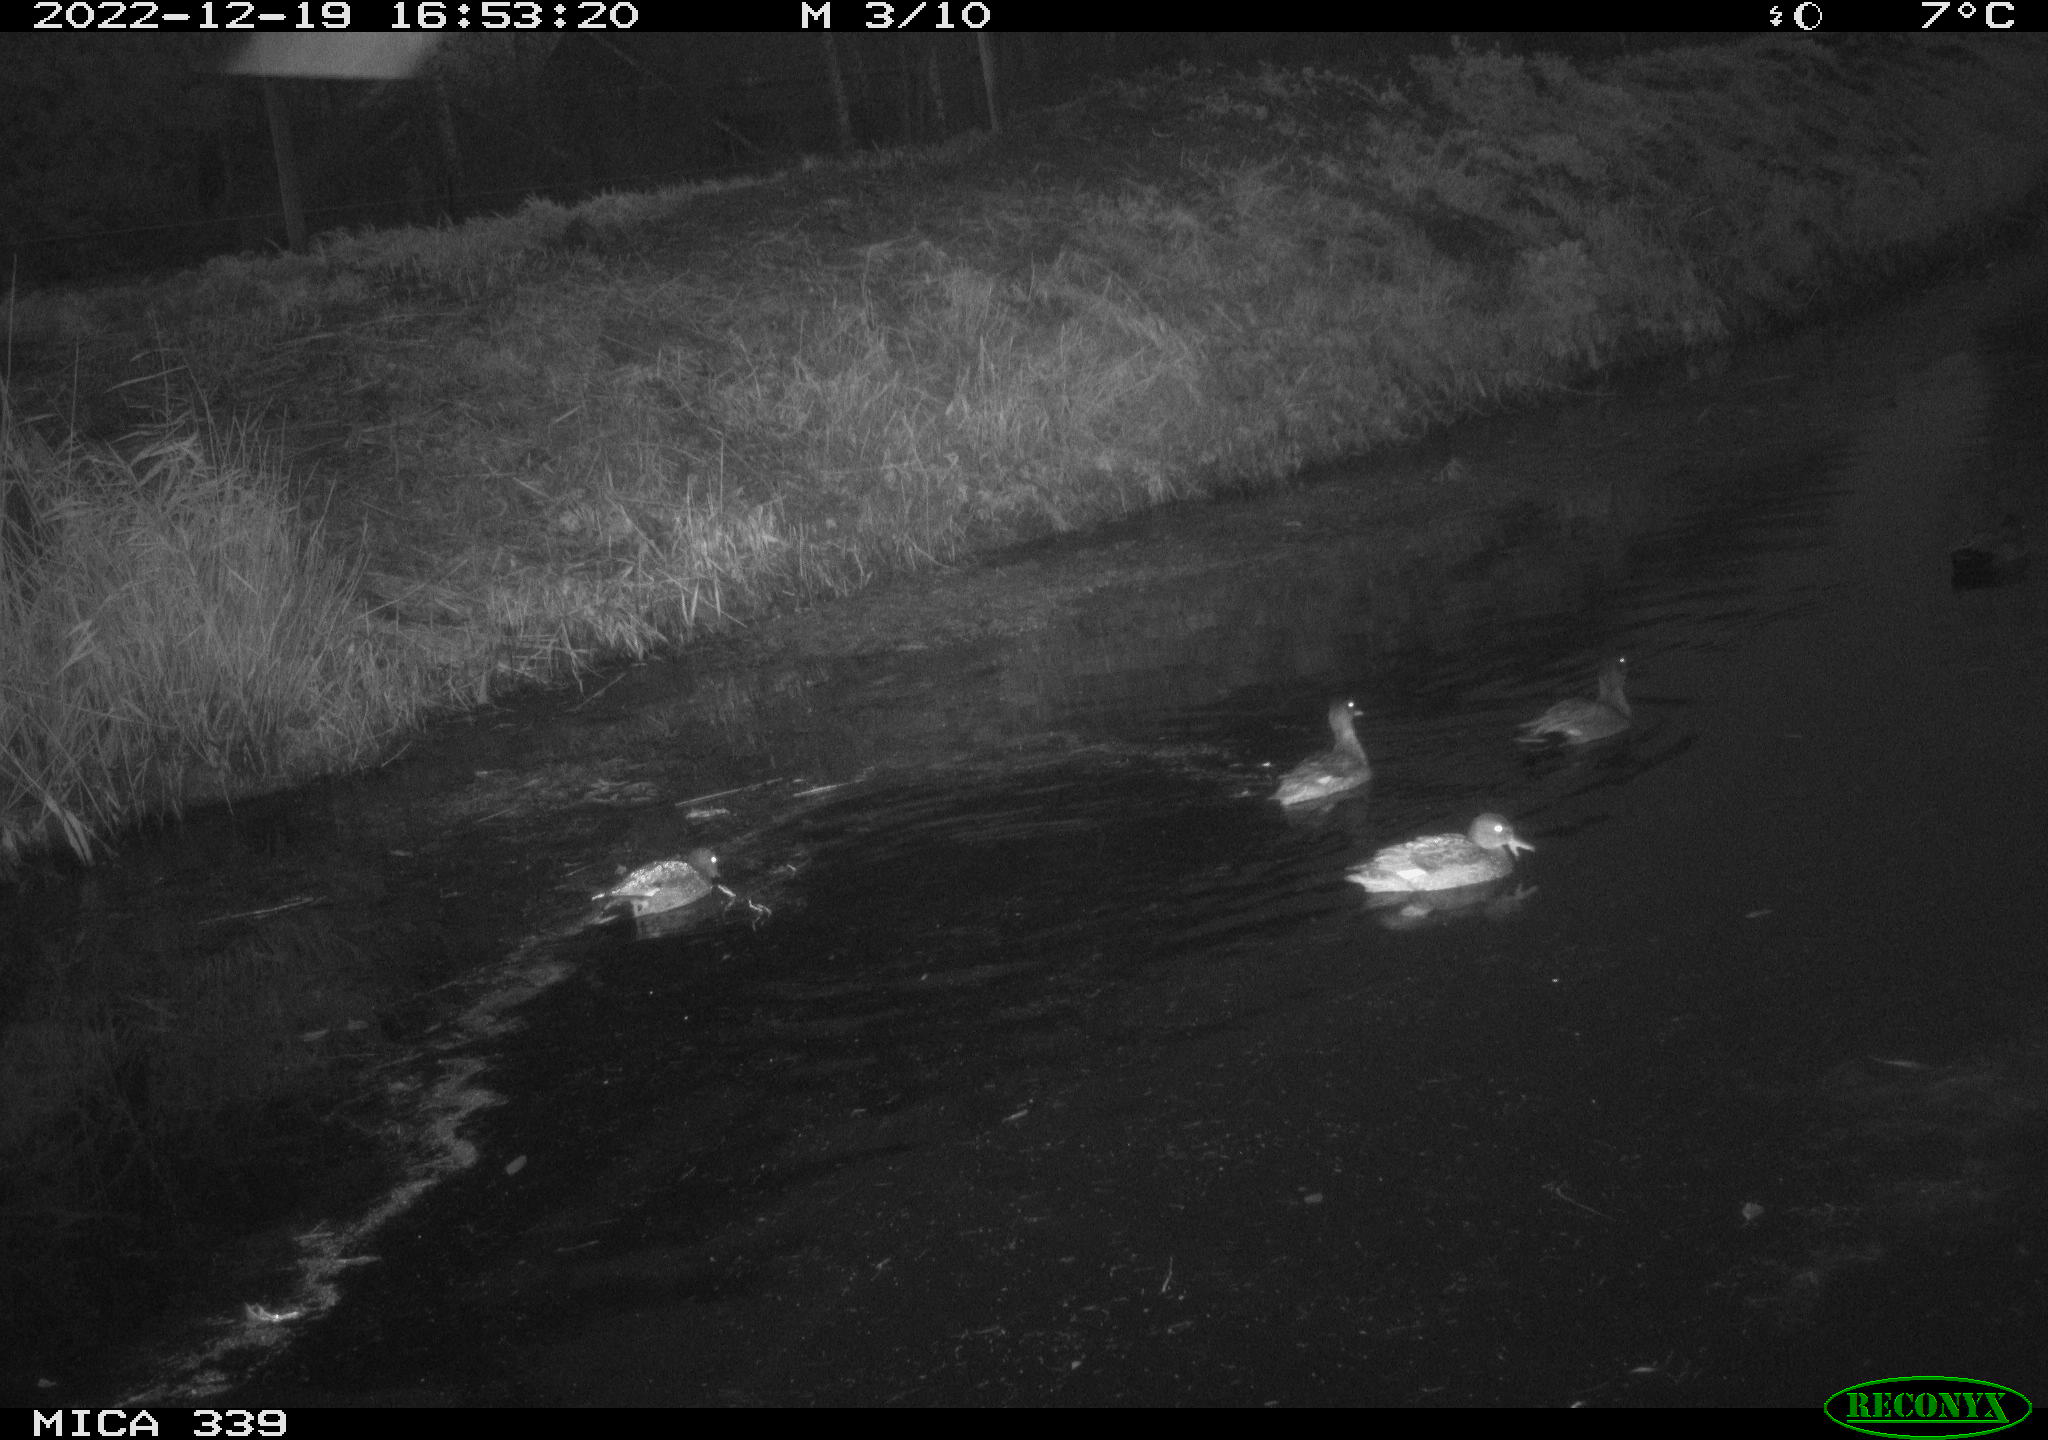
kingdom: Animalia
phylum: Chordata
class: Aves
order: Anseriformes
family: Anatidae
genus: Anas
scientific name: Anas
